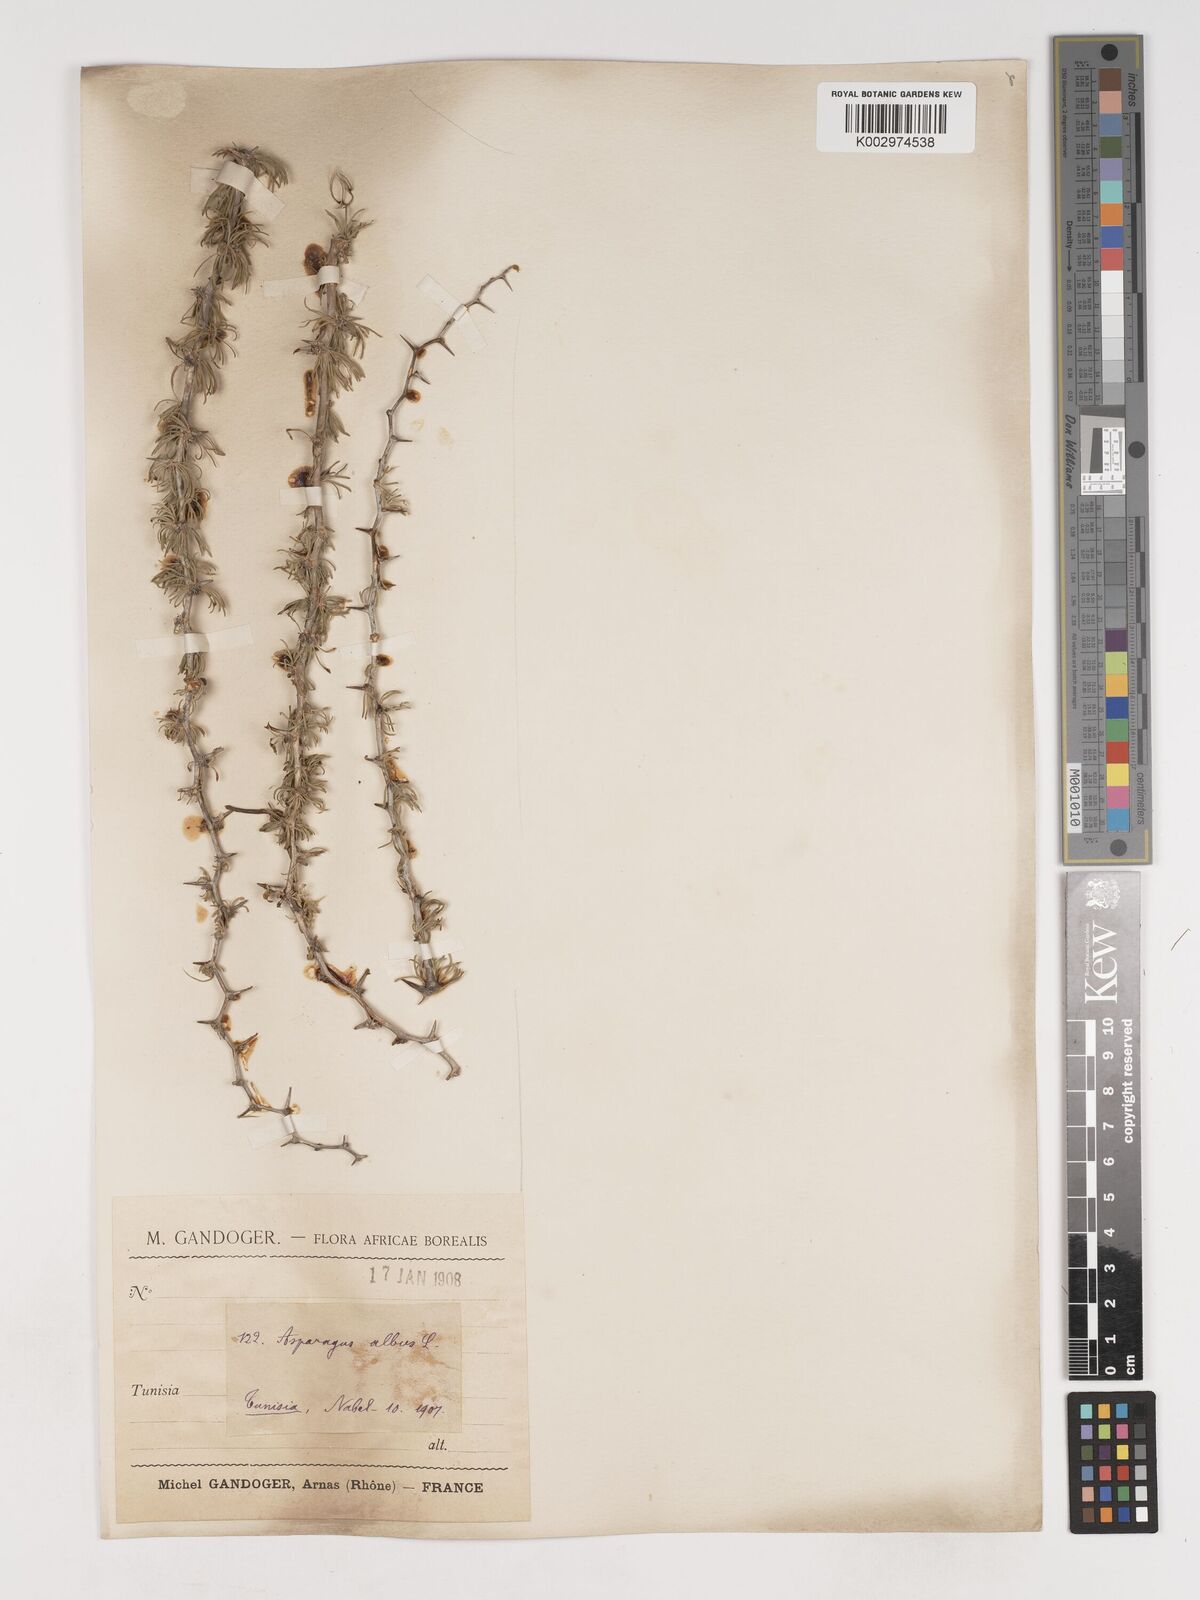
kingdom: Plantae
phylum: Tracheophyta
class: Liliopsida
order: Asparagales
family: Asparagaceae
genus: Asparagus
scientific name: Asparagus albus
